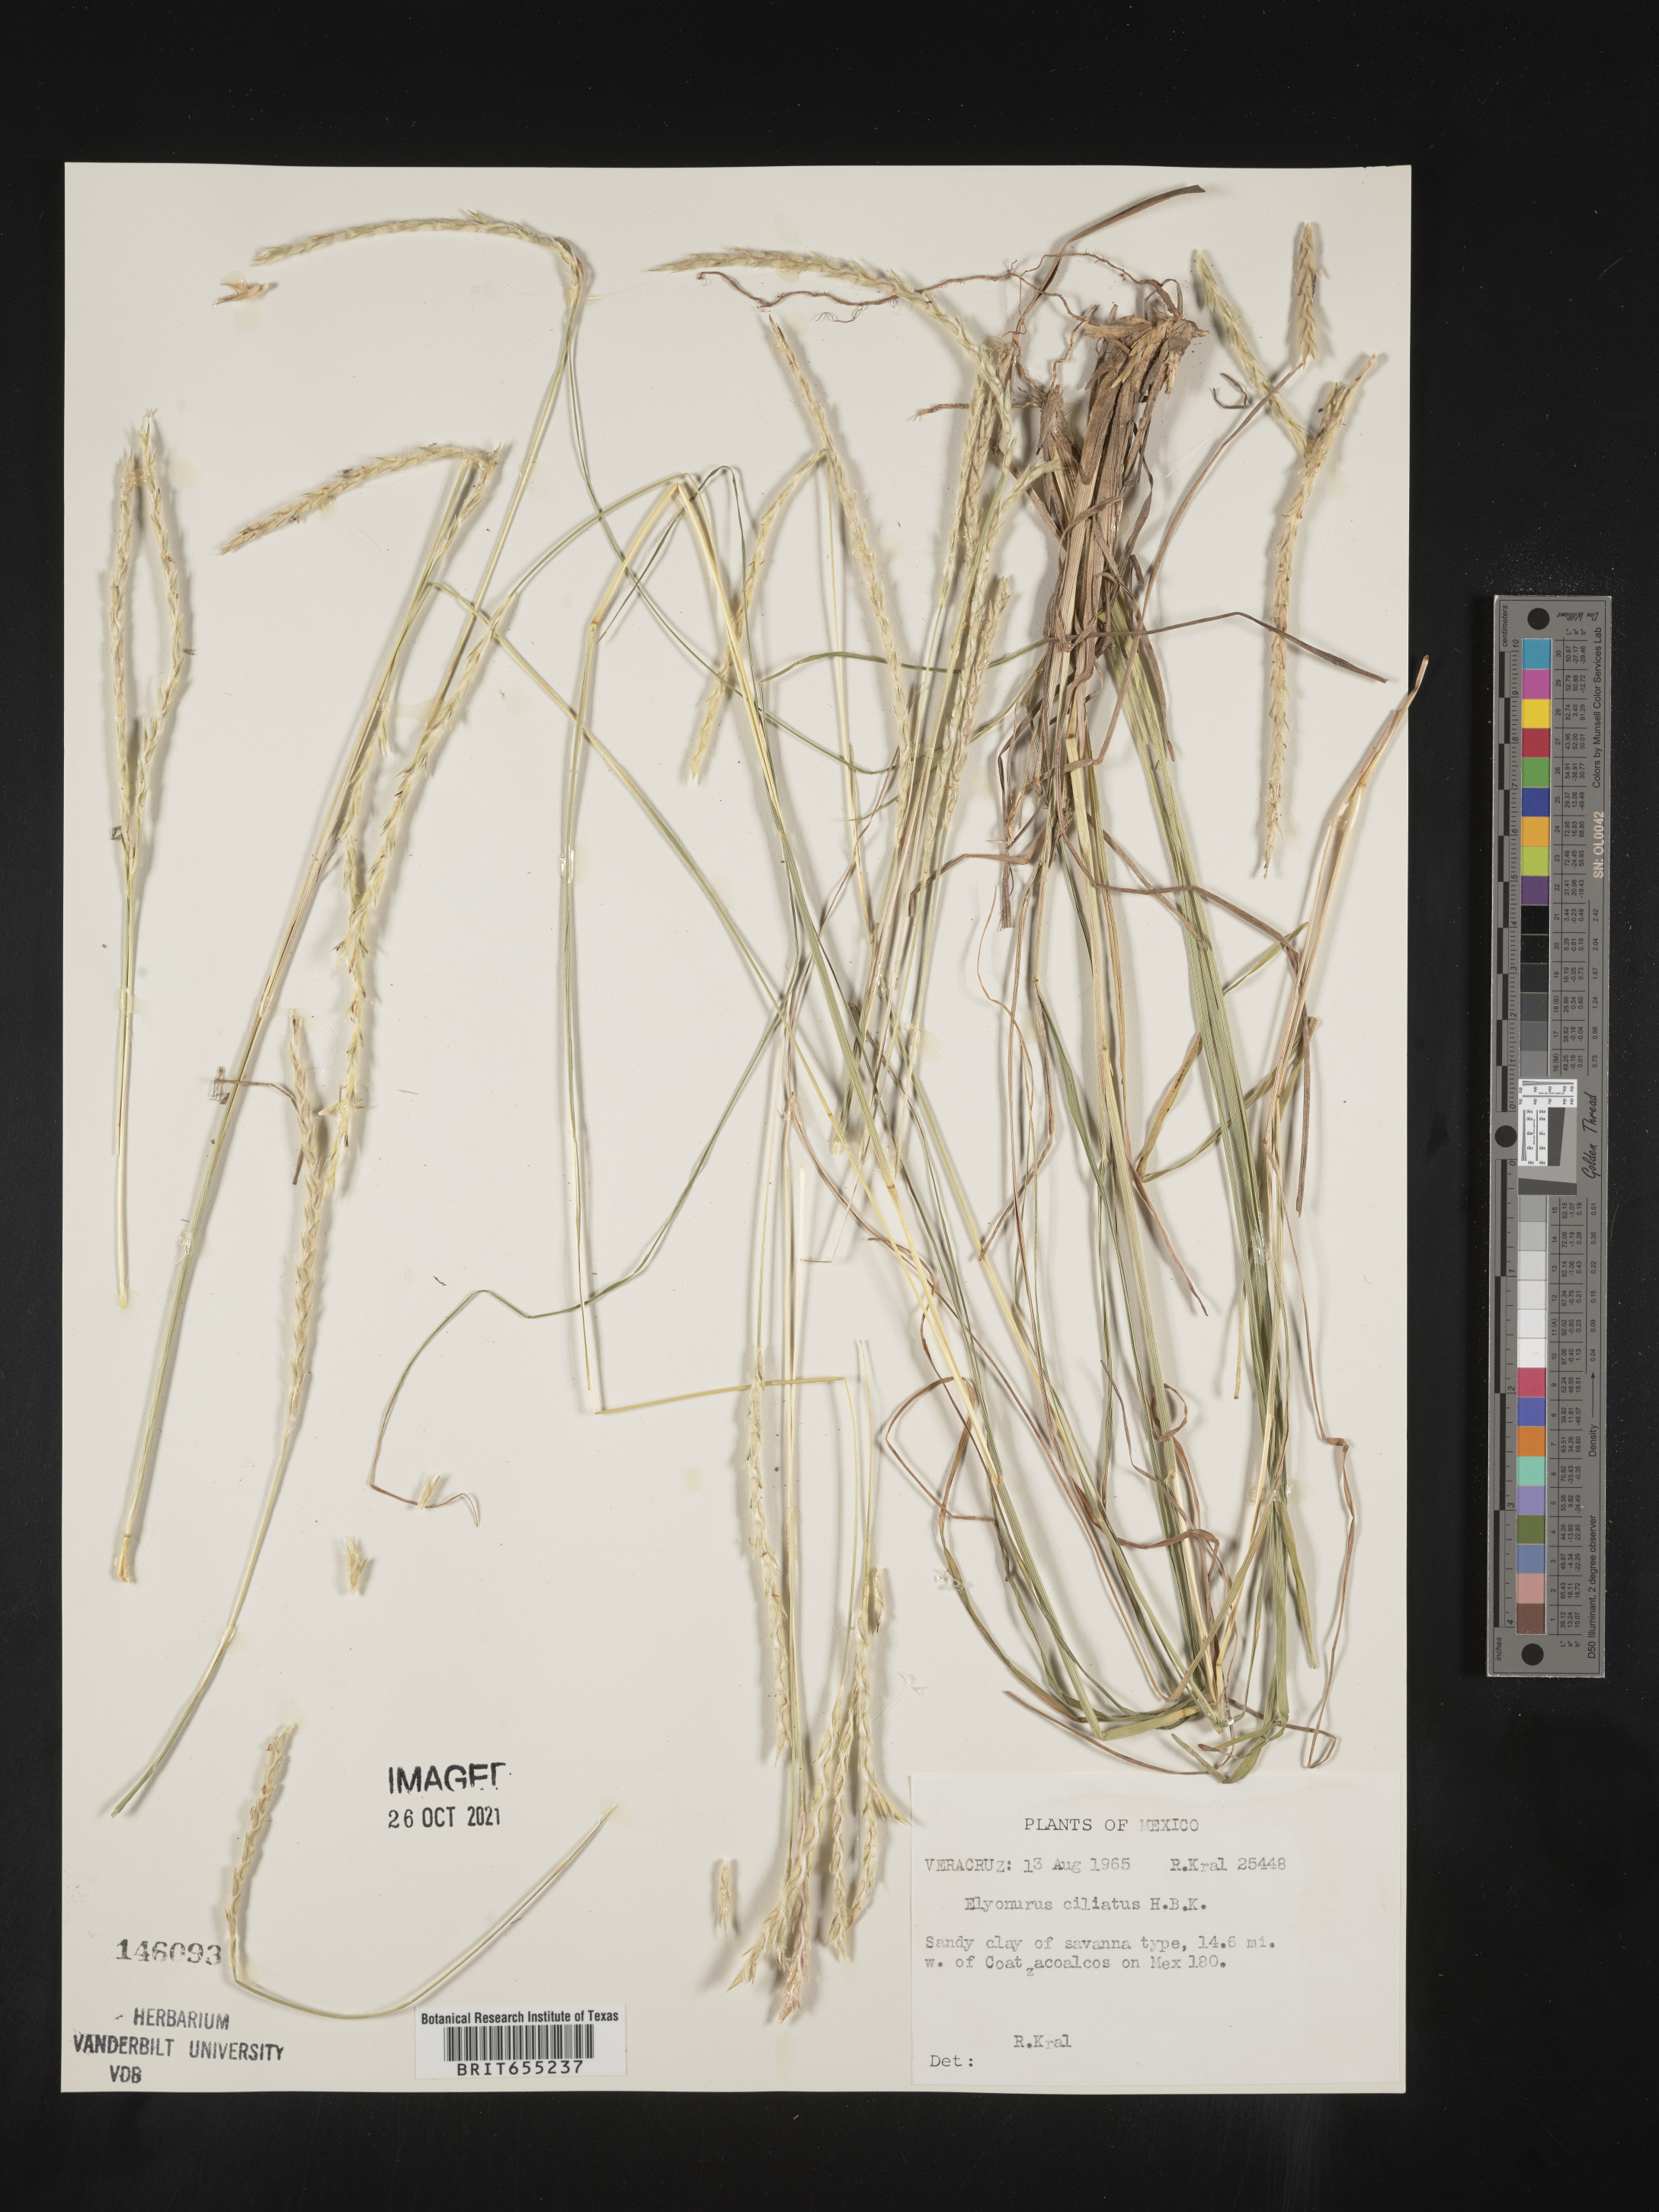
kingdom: Plantae
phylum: Tracheophyta
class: Liliopsida
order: Poales
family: Poaceae
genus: Elionurus
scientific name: Elionurus
